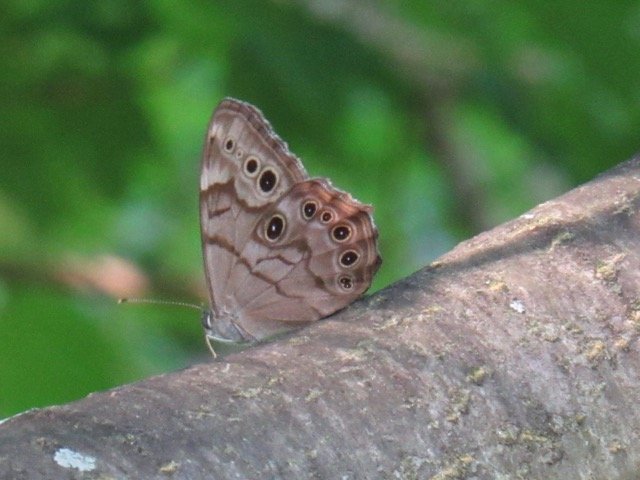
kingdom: Animalia
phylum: Arthropoda
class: Insecta
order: Lepidoptera
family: Nymphalidae
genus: Lethe
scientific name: Lethe anthedon
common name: Northern Pearly-Eye
